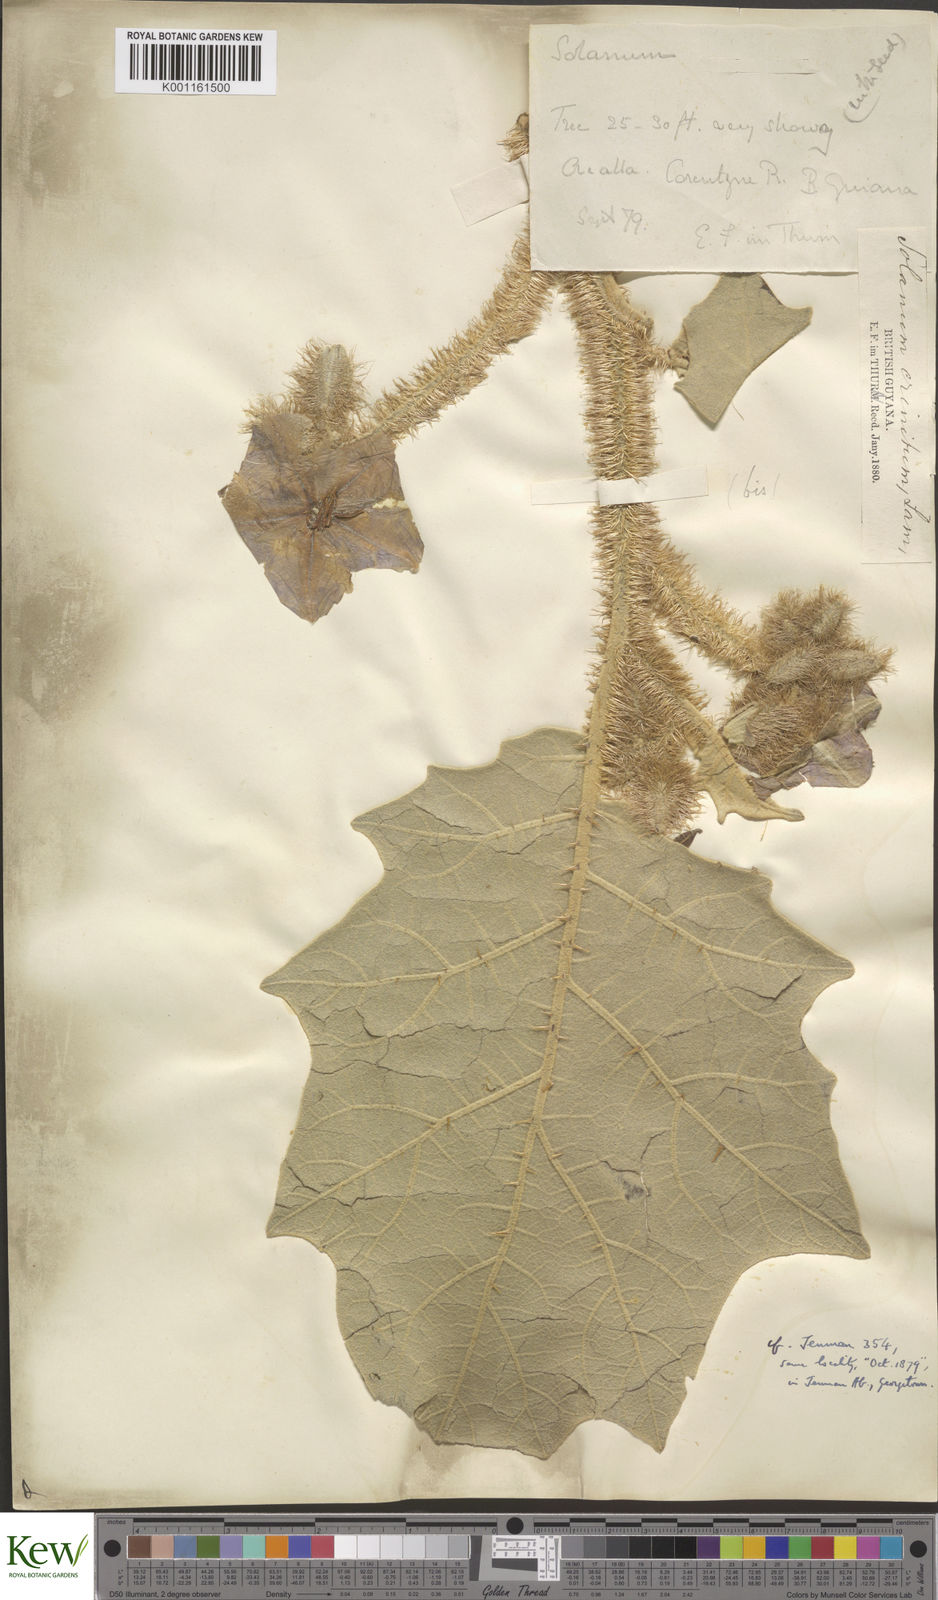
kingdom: Plantae
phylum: Tracheophyta
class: Magnoliopsida
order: Solanales
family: Solanaceae
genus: Solanum
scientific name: Solanum crinitum
